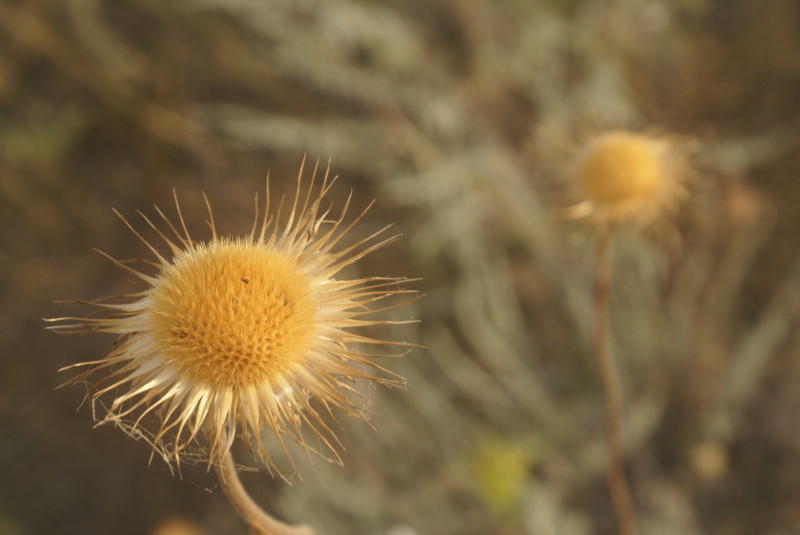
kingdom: Plantae
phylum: Tracheophyta
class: Magnoliopsida
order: Asterales
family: Asteraceae
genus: Scorzonera
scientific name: Scorzonera
